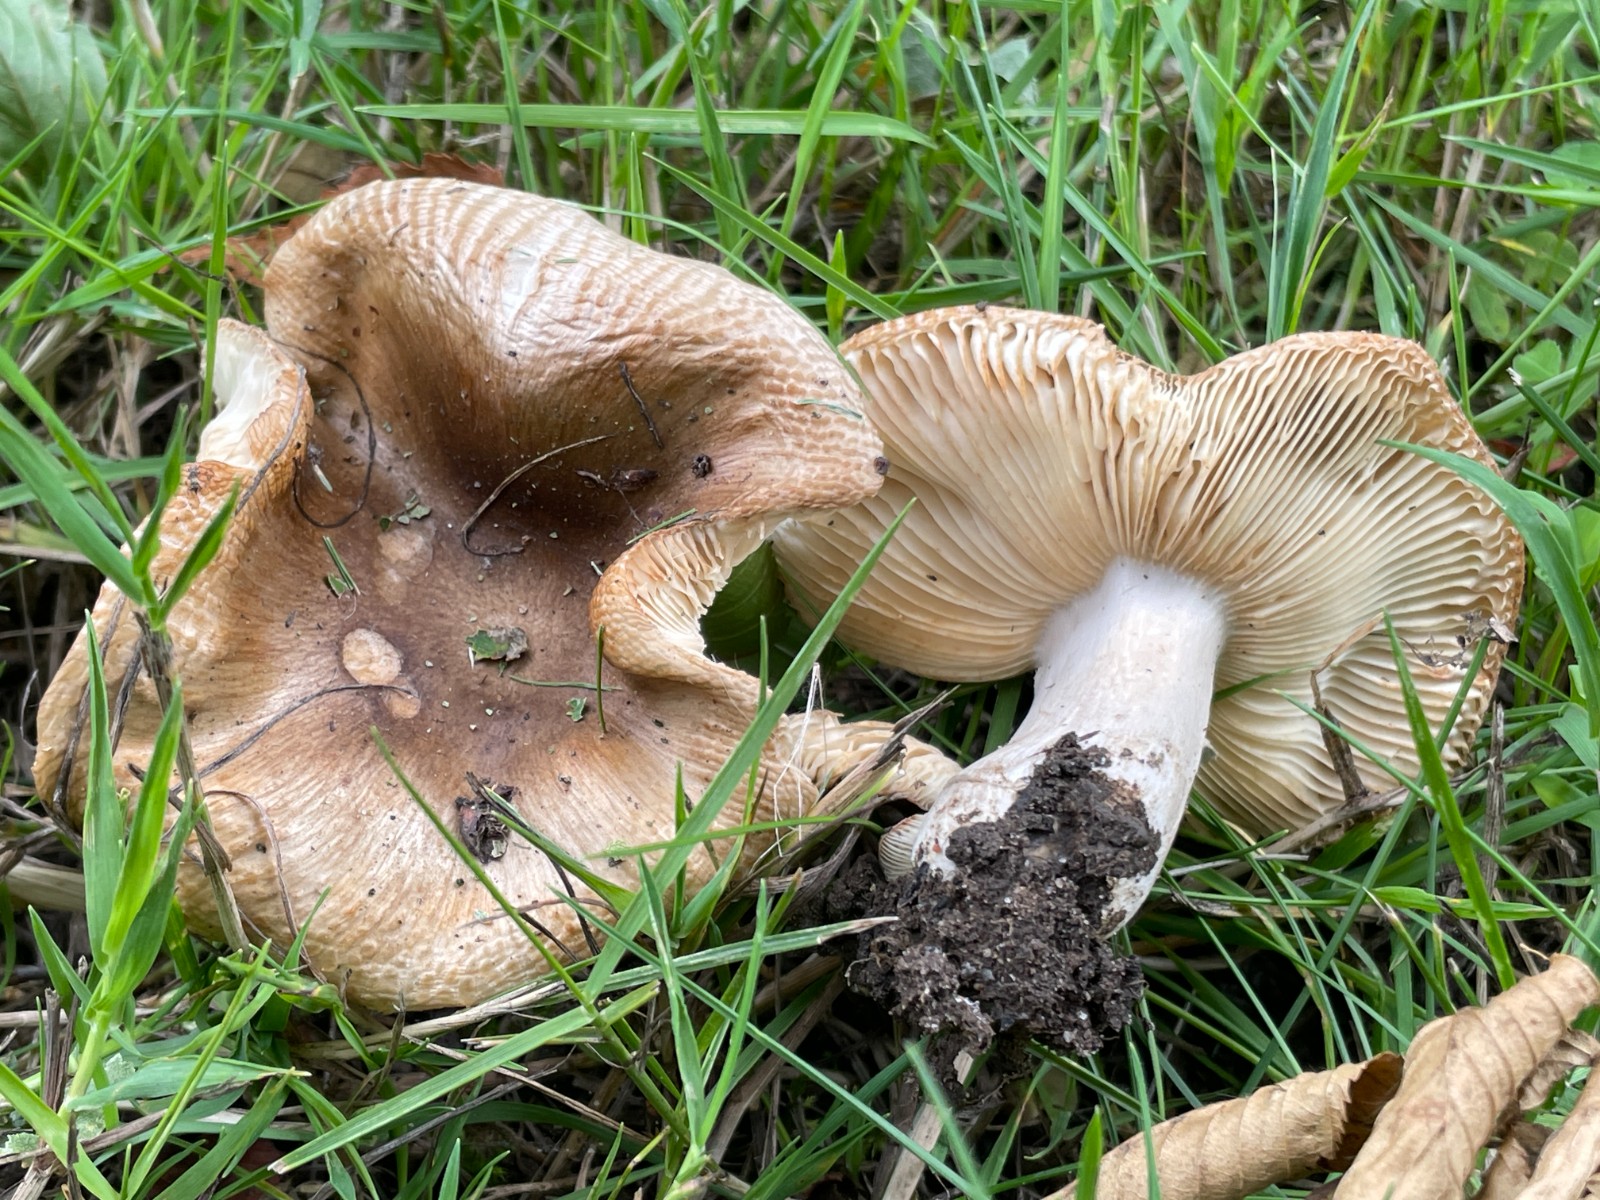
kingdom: Fungi
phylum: Basidiomycota
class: Agaricomycetes
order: Russulales
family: Russulaceae
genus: Russula
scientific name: Russula recondita
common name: mild kam-skørhat
